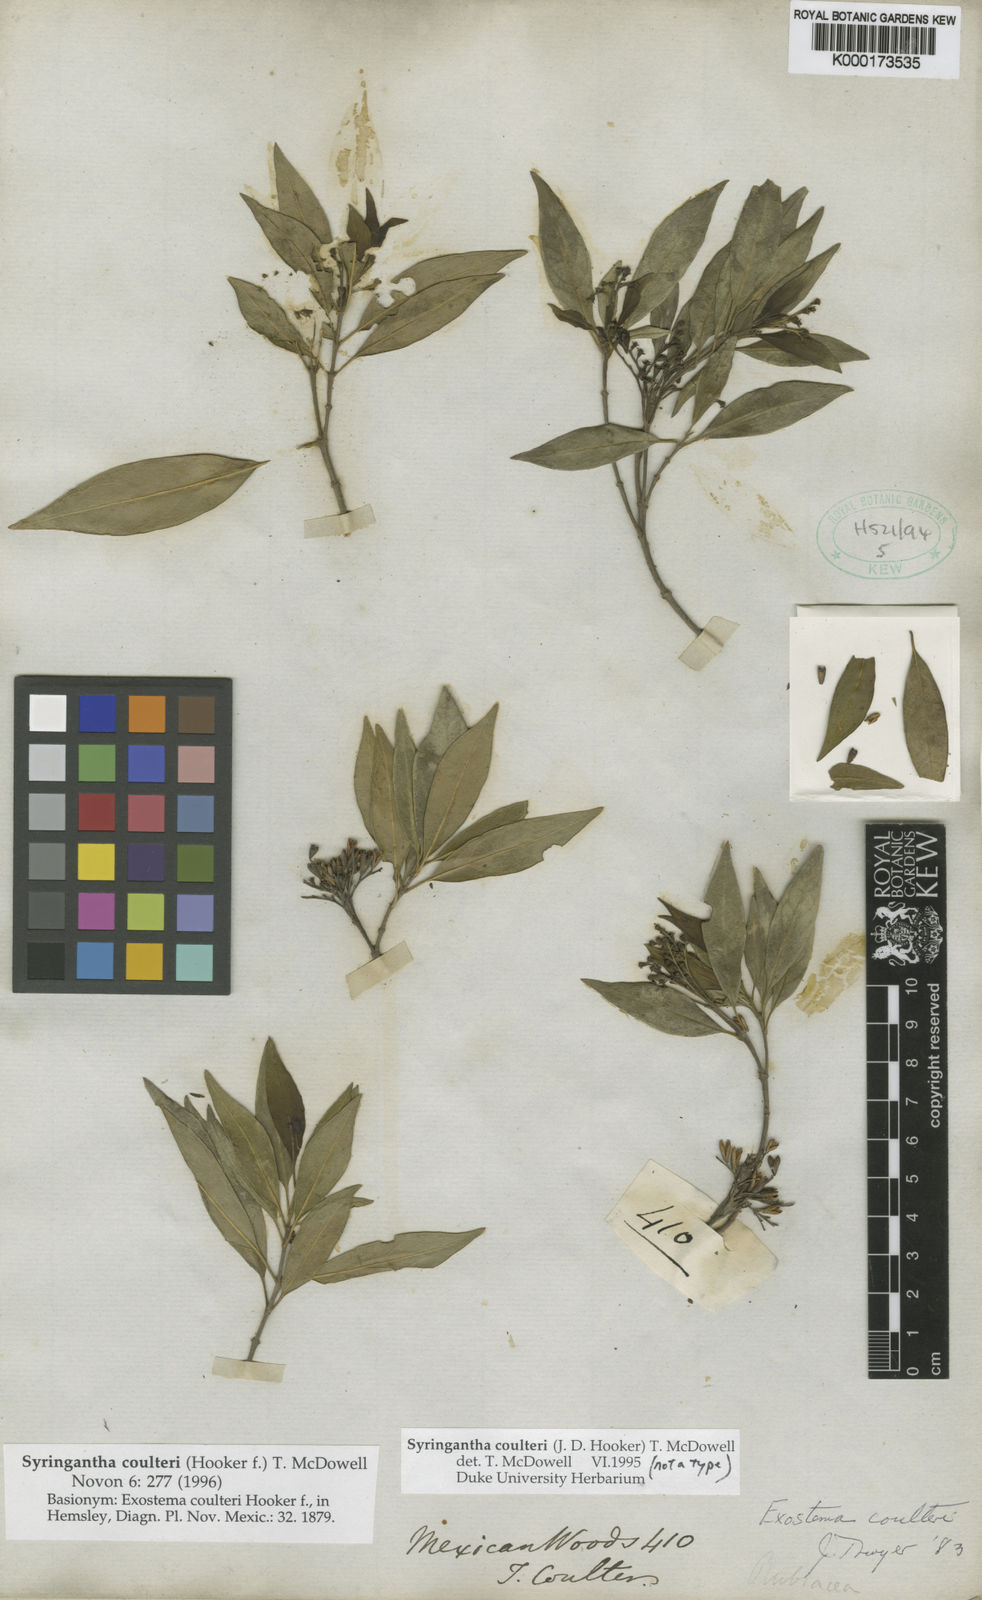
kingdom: Plantae
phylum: Tracheophyta
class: Magnoliopsida
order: Gentianales
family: Rubiaceae
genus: Syringantha
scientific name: Syringantha coulteri
